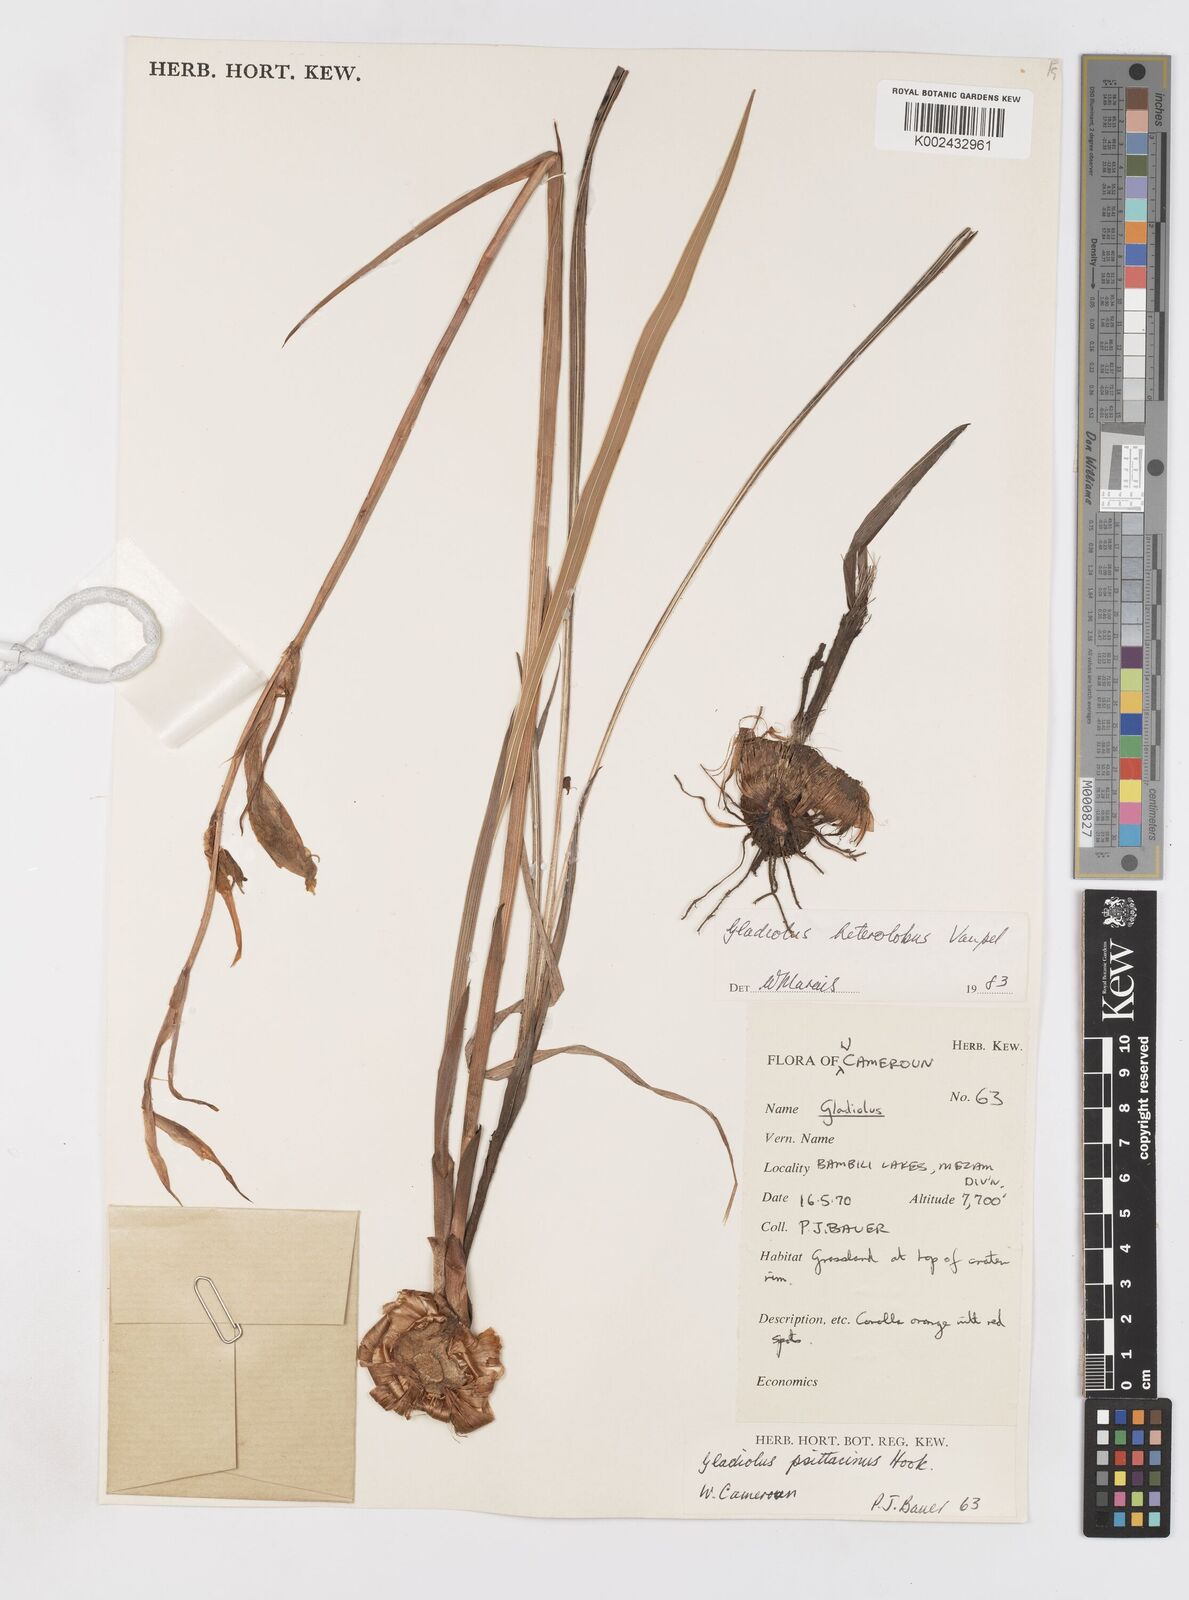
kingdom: Plantae
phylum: Tracheophyta
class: Liliopsida
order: Asparagales
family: Iridaceae
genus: Gladiolus
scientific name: Gladiolus roseolus
